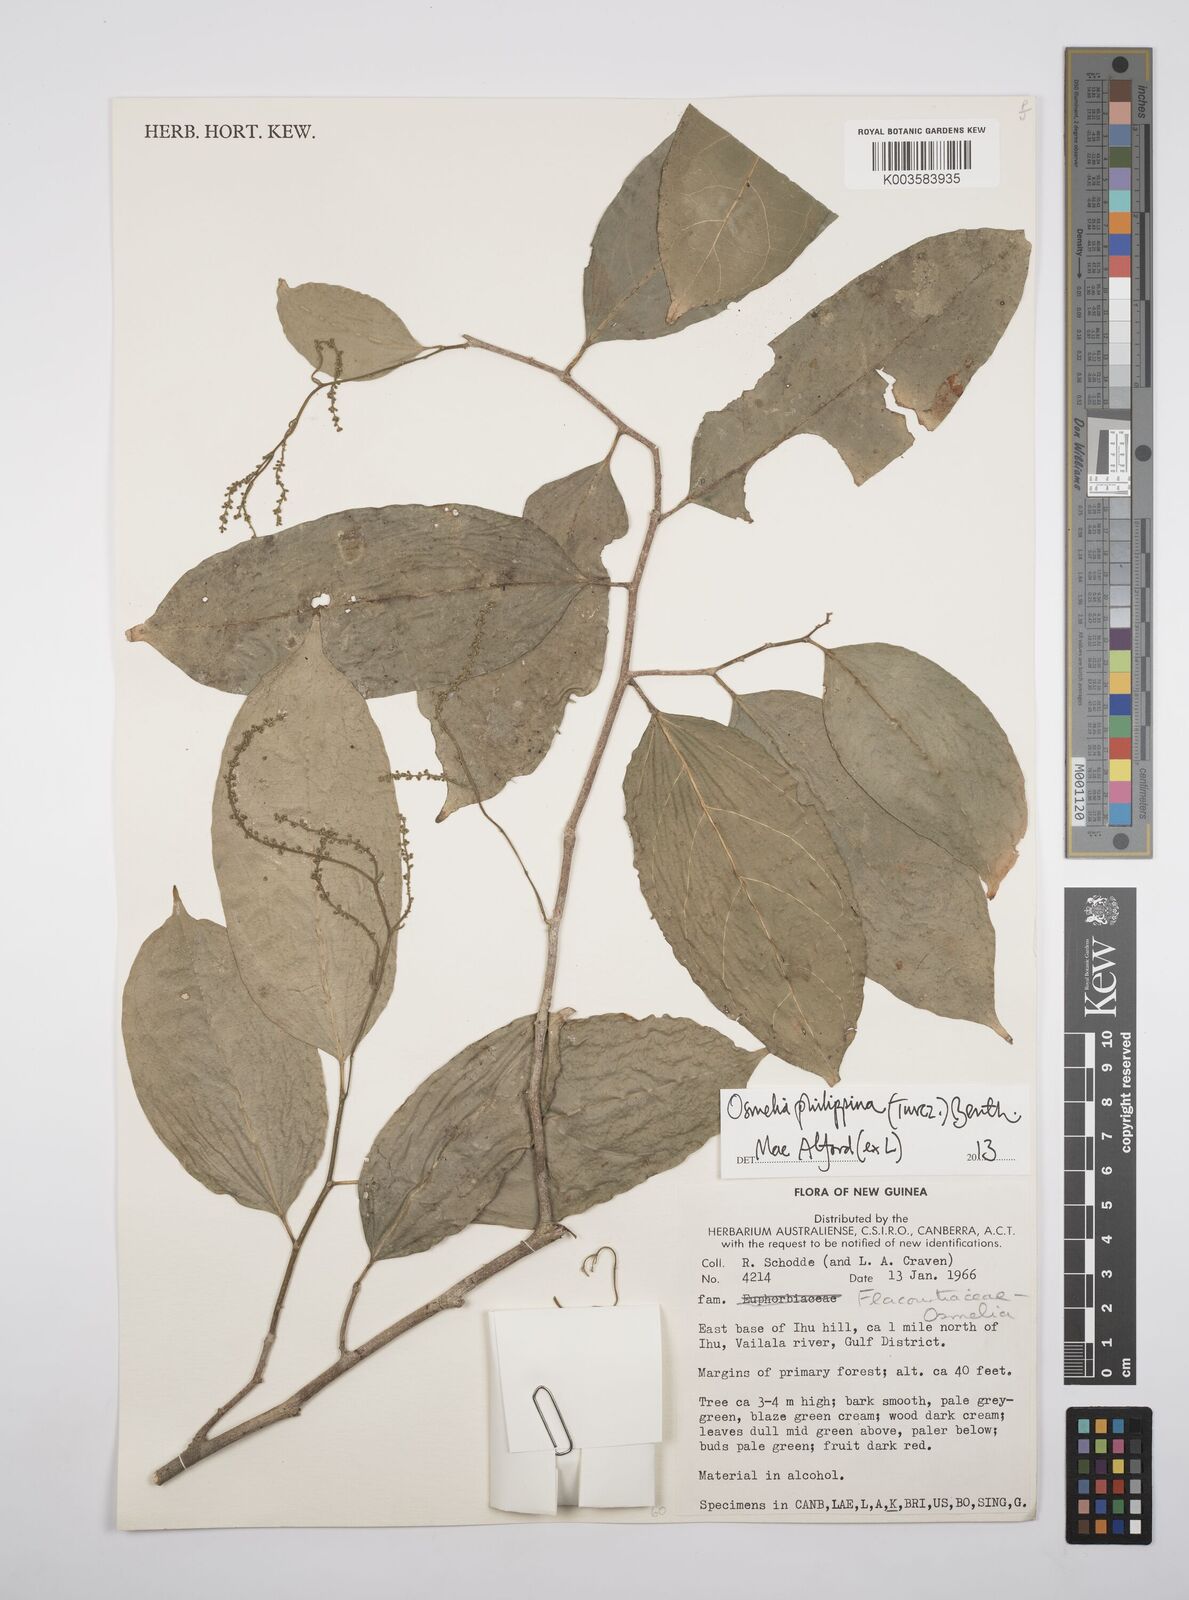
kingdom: Plantae
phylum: Tracheophyta
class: Magnoliopsida
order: Malpighiales
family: Salicaceae
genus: Osmelia
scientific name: Osmelia philippina
